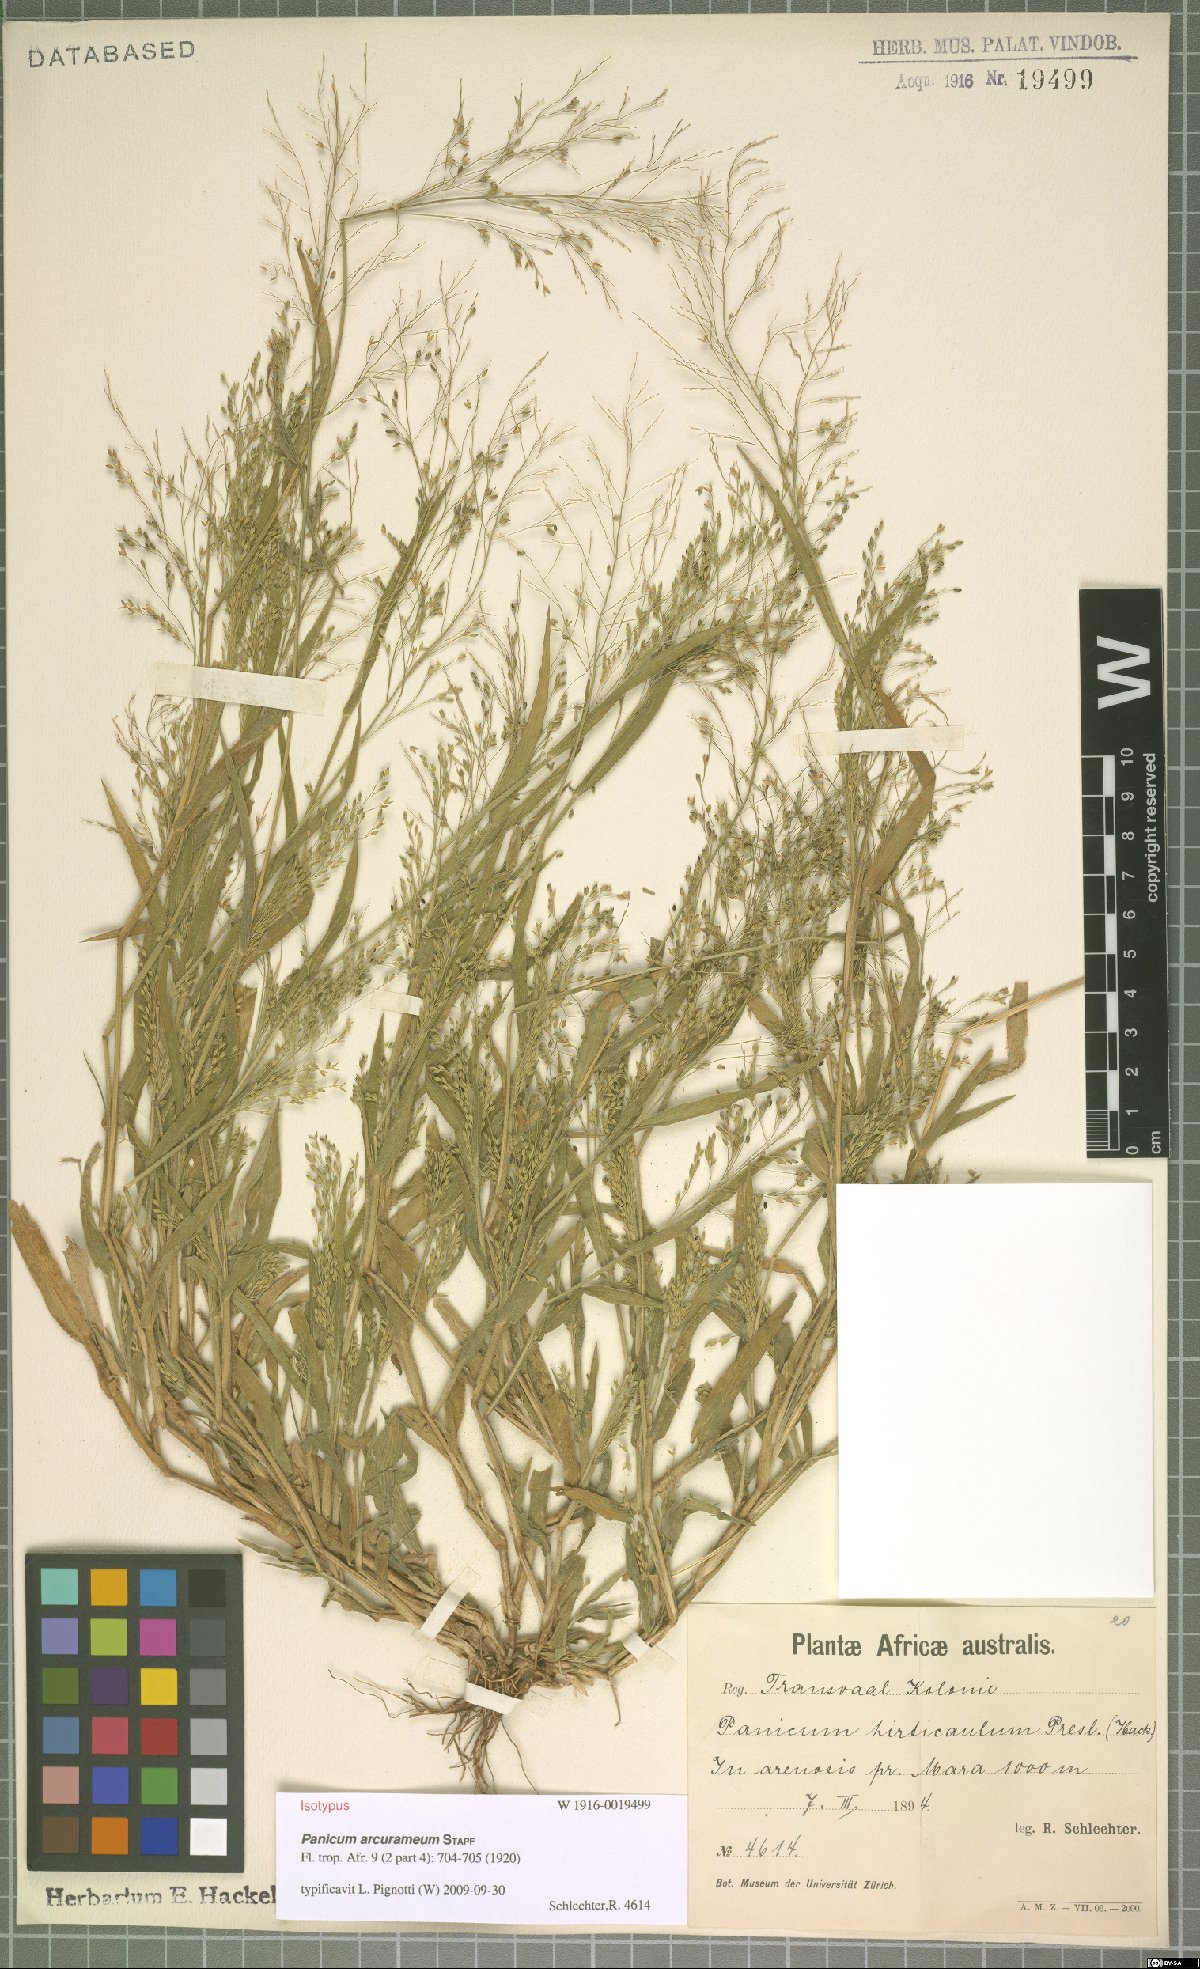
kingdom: Plantae
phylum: Tracheophyta
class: Liliopsida
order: Poales
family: Poaceae
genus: Panicum
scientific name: Panicum arcurameum
